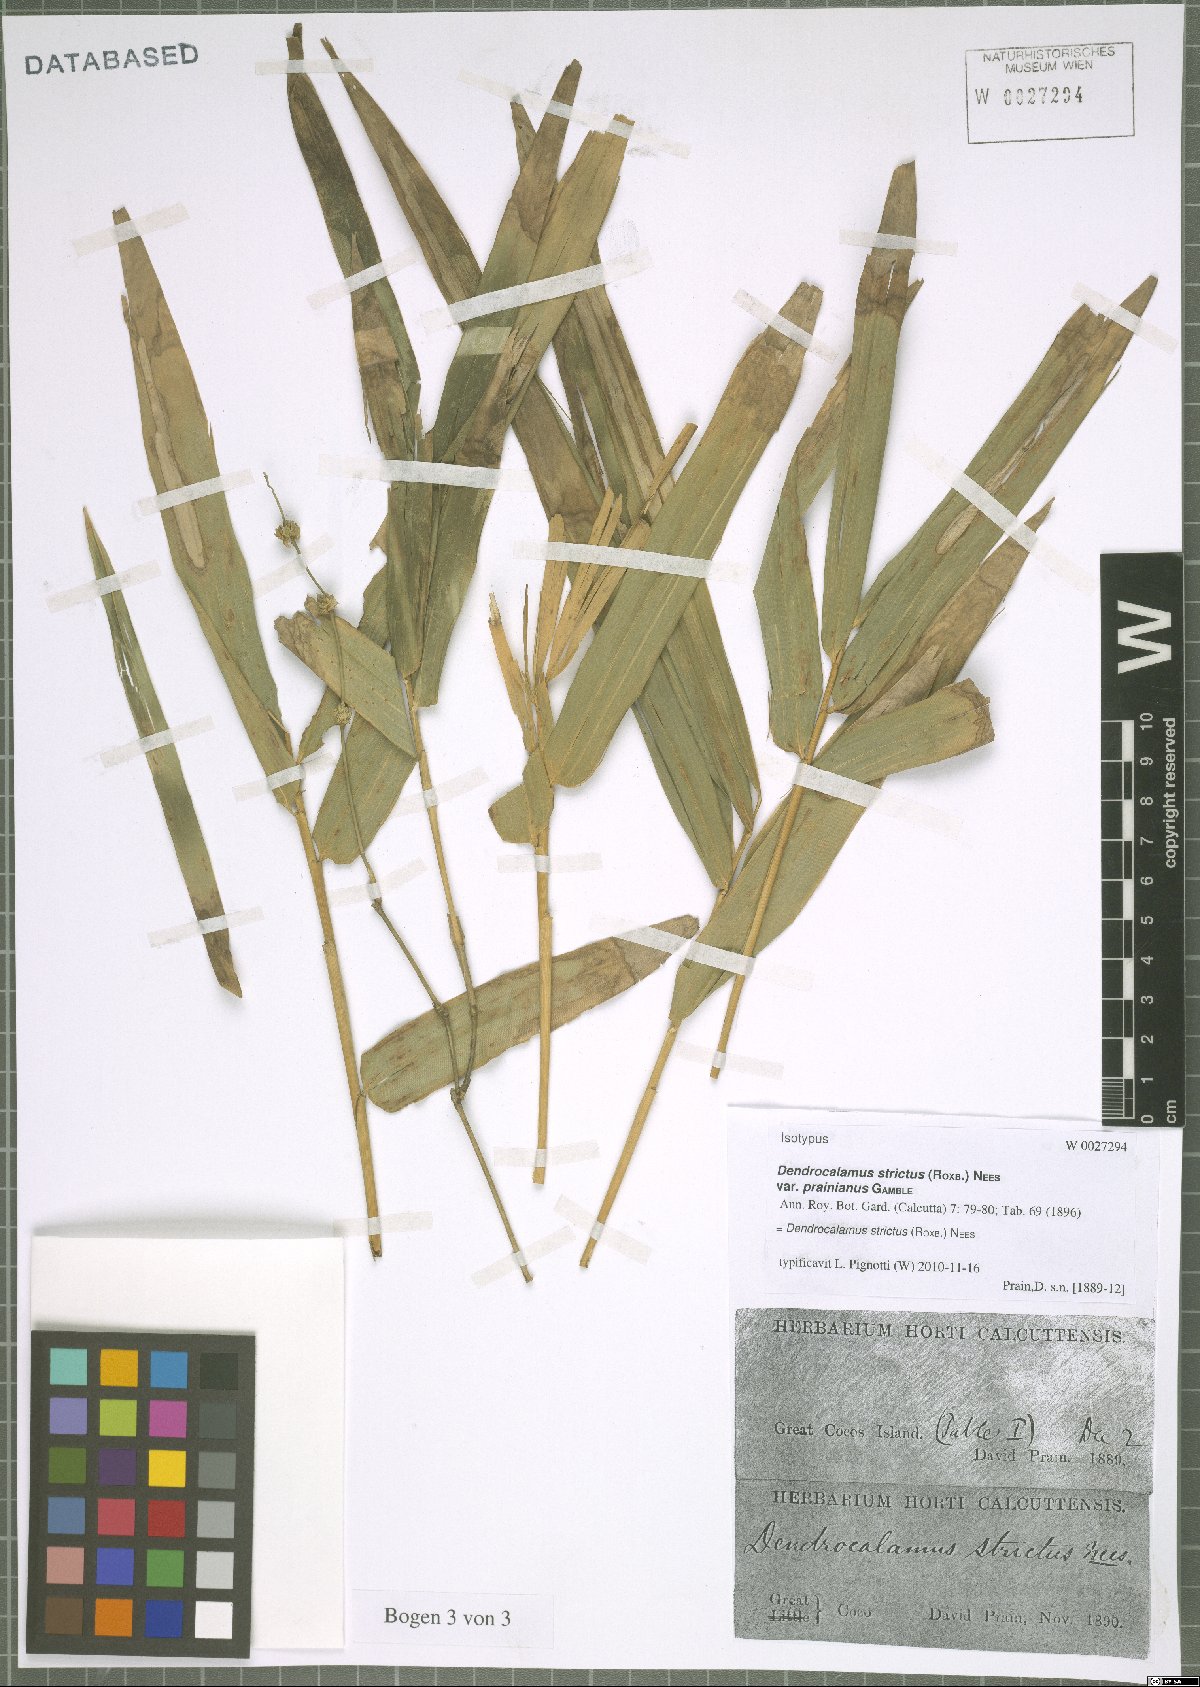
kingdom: Plantae
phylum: Tracheophyta
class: Liliopsida
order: Poales
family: Poaceae
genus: Dendrocalamus
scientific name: Dendrocalamus strictus
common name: Male bamboo
